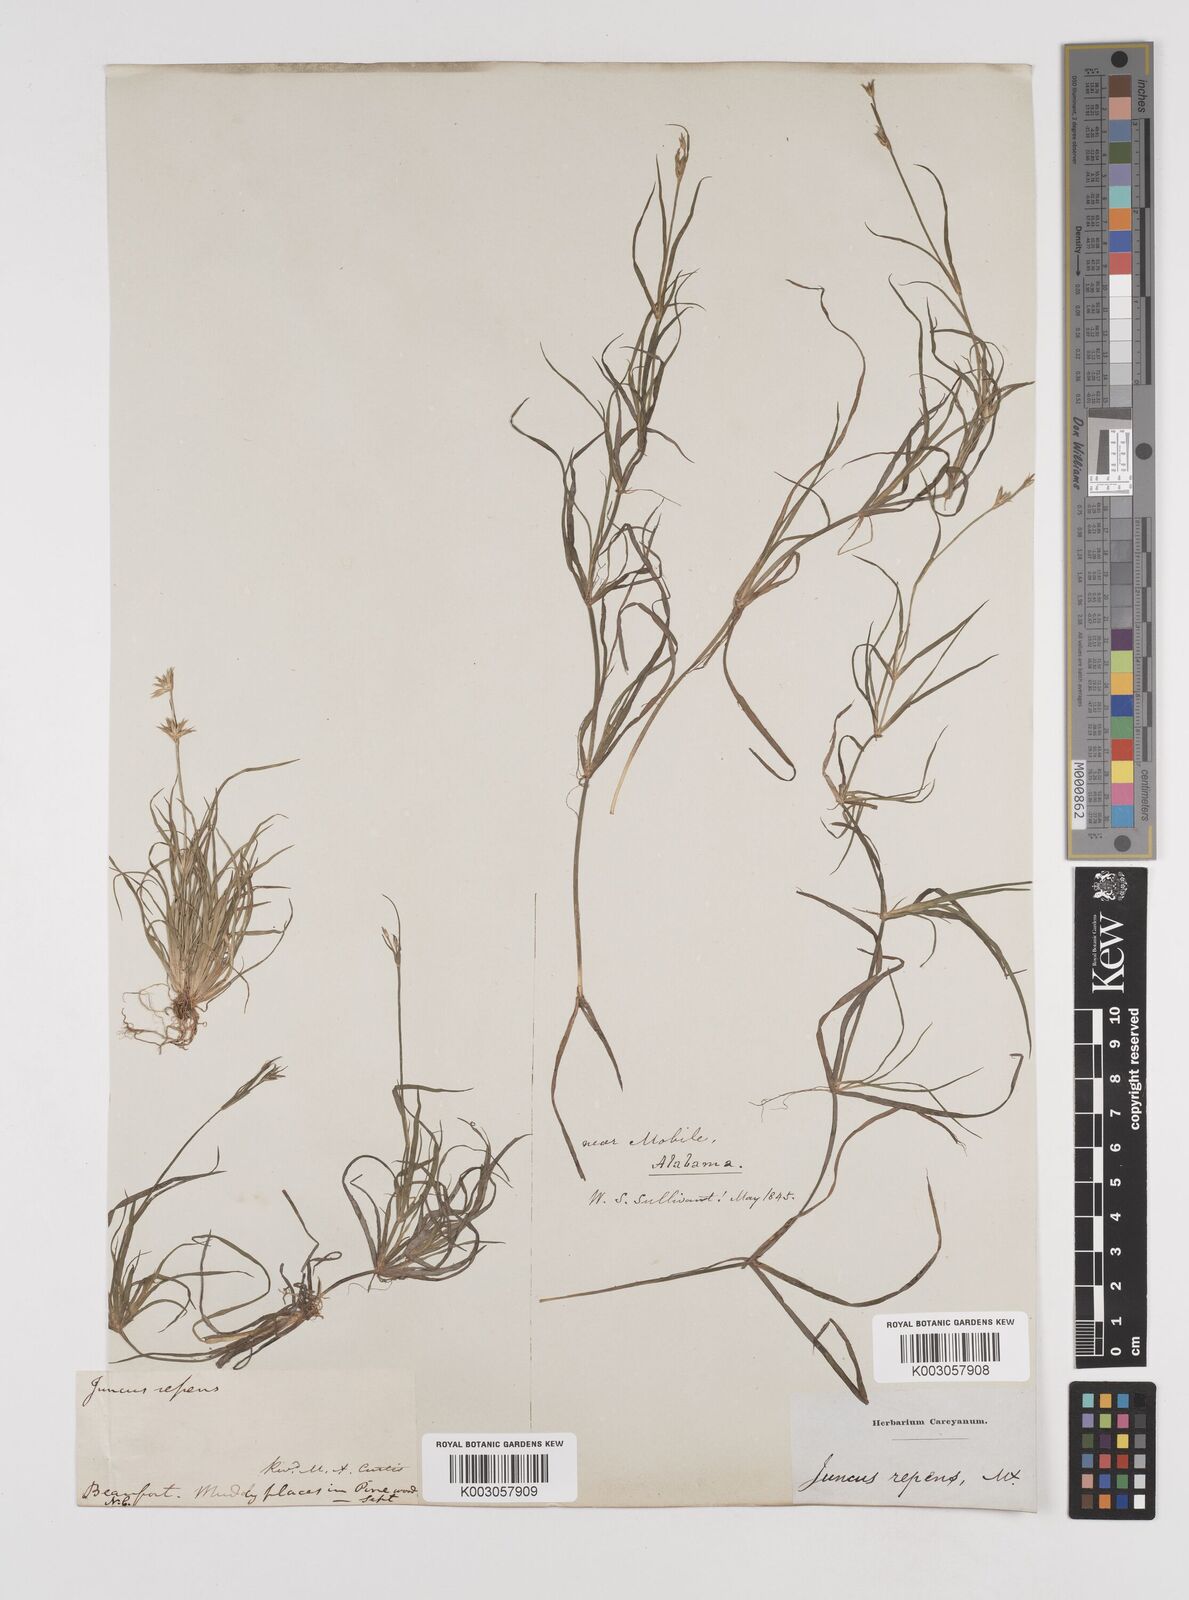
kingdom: Plantae
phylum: Tracheophyta
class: Liliopsida
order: Poales
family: Juncaceae
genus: Juncus
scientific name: Juncus repens
